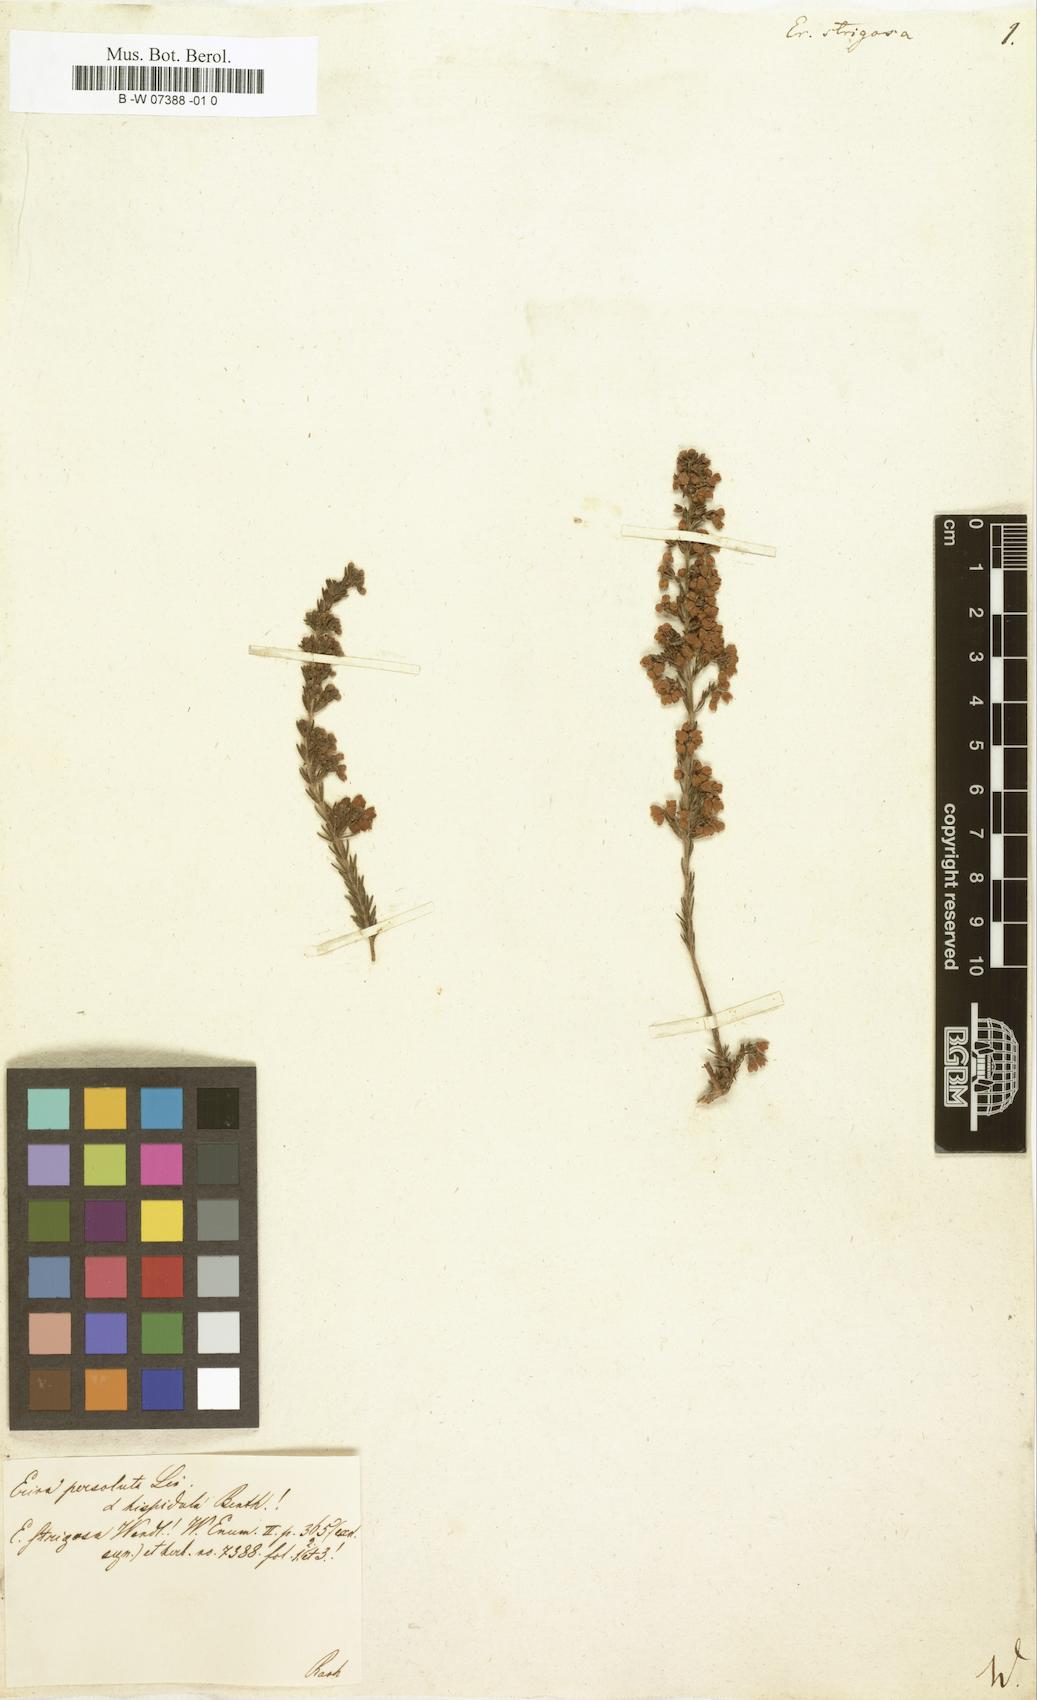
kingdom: Plantae
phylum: Tracheophyta
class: Magnoliopsida
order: Ericales
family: Ericaceae
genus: Erica
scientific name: Erica strigosa
